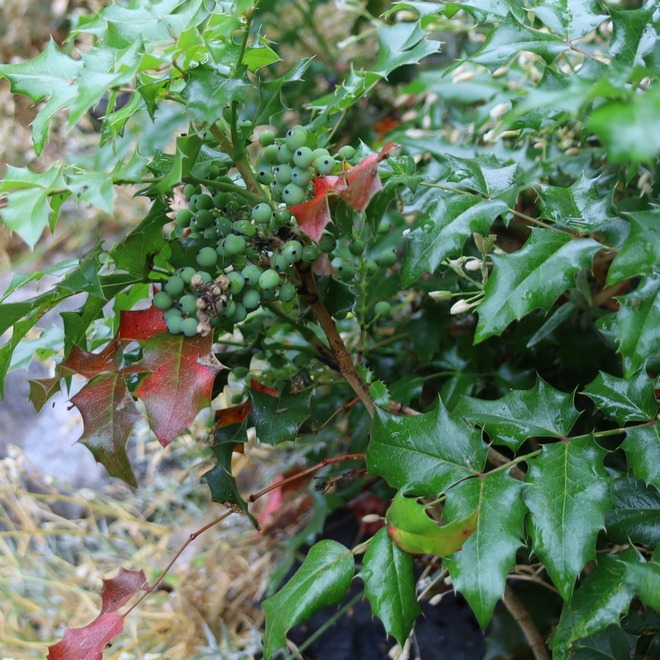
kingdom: Plantae
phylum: Tracheophyta
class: Magnoliopsida
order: Ranunculales
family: Berberidaceae
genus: Mahonia
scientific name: Mahonia aquifolium
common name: Almindelig mahonie
